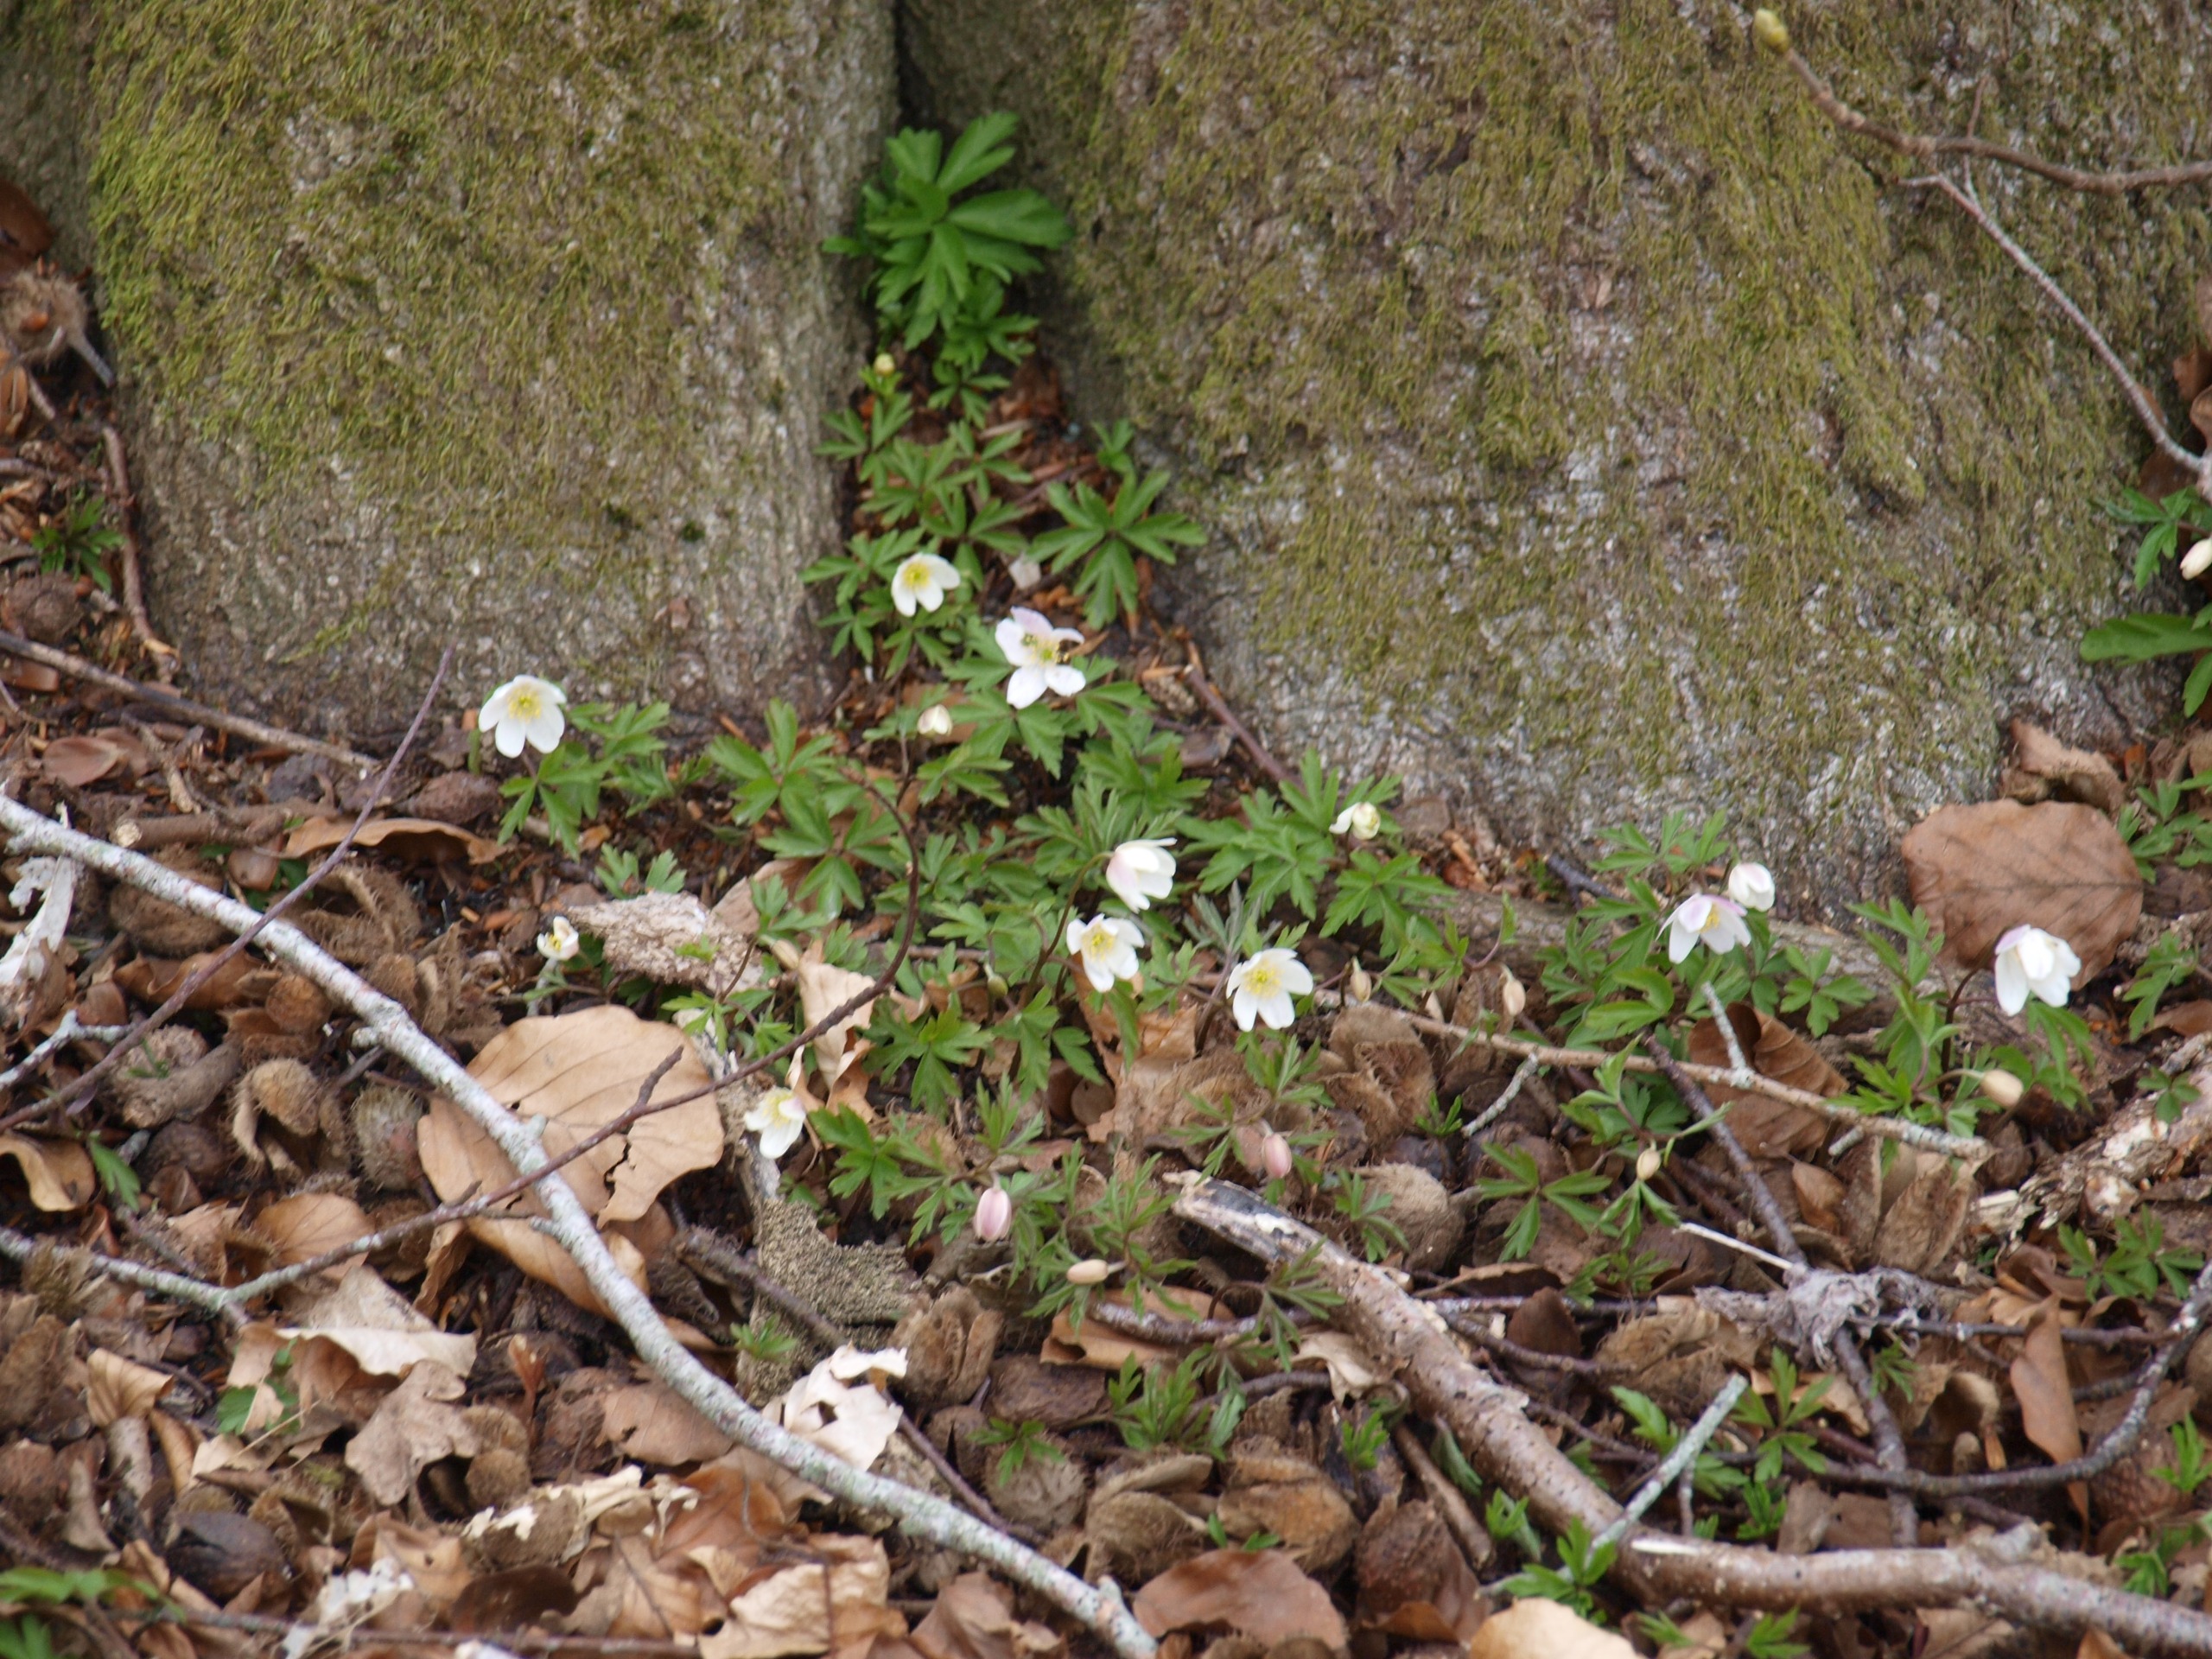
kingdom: Plantae
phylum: Tracheophyta
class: Magnoliopsida
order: Ranunculales
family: Ranunculaceae
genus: Anemone
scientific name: Anemone nemorosa
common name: Hvid anemone
